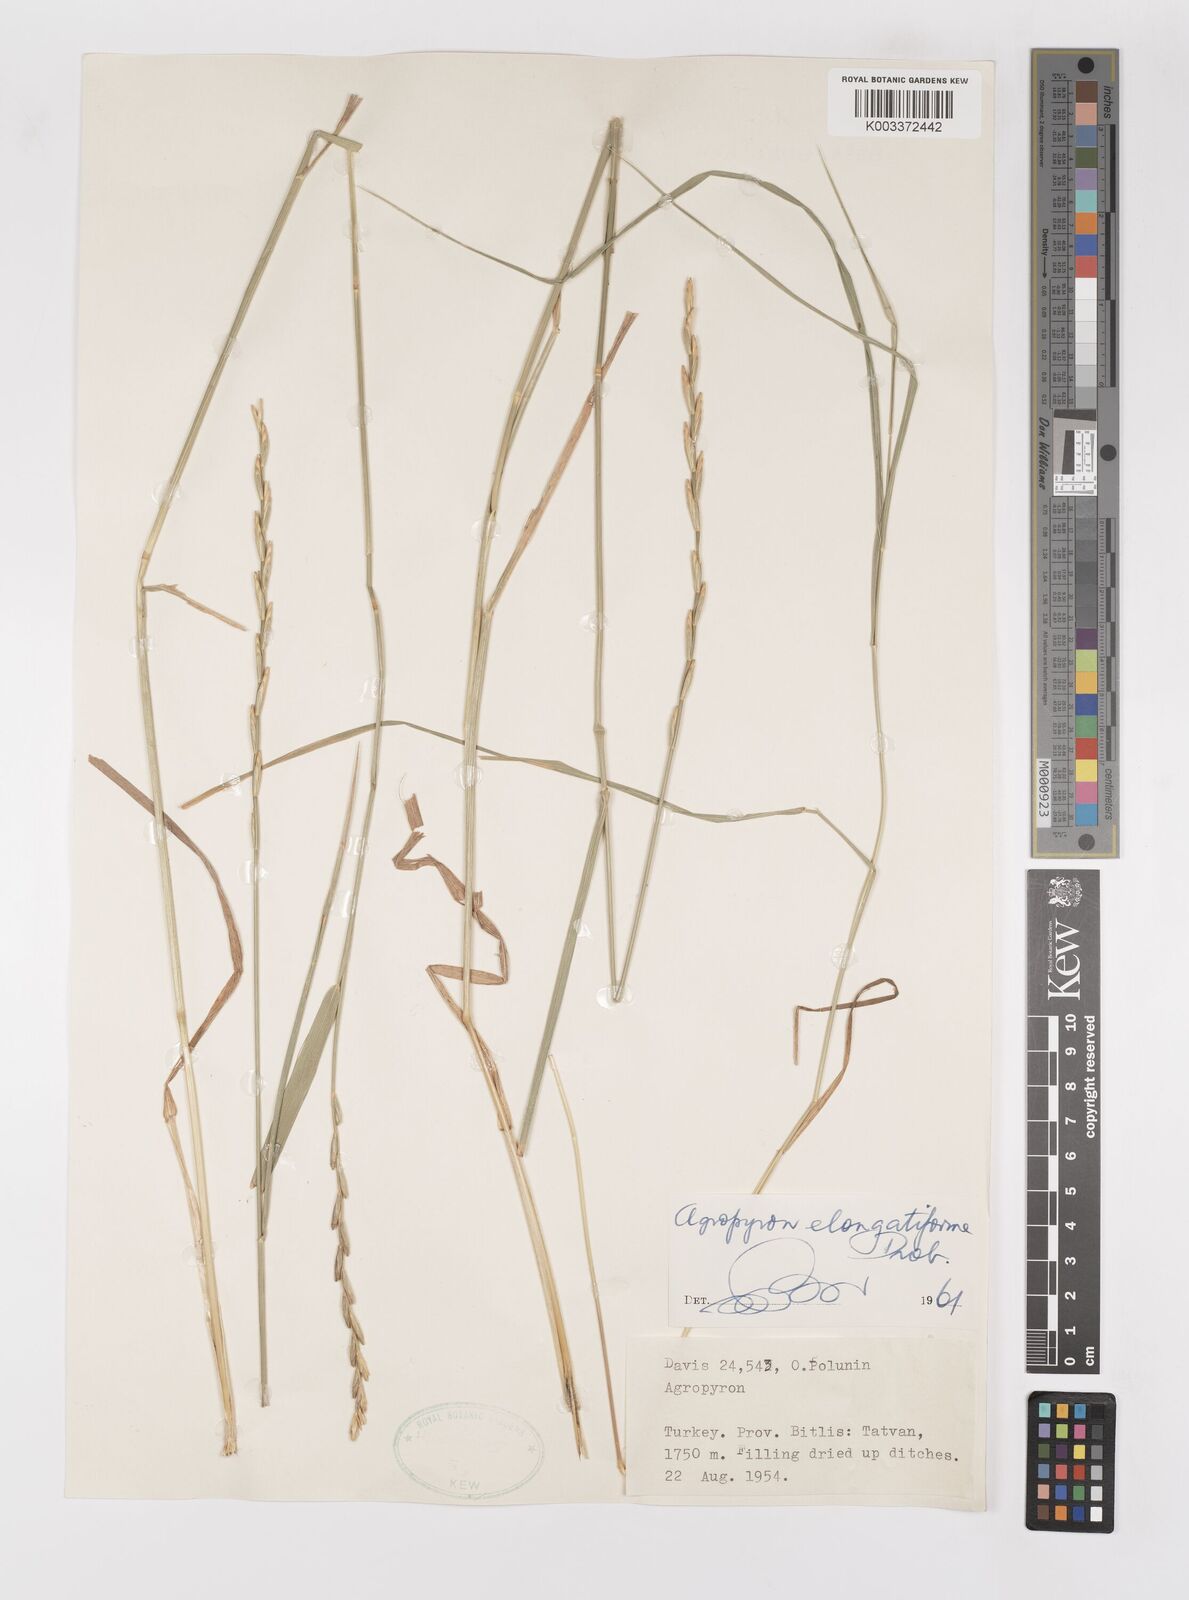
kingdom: Plantae
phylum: Tracheophyta
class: Liliopsida
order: Poales
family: Poaceae
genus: Elymus
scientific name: Elymus repens
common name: Quackgrass
